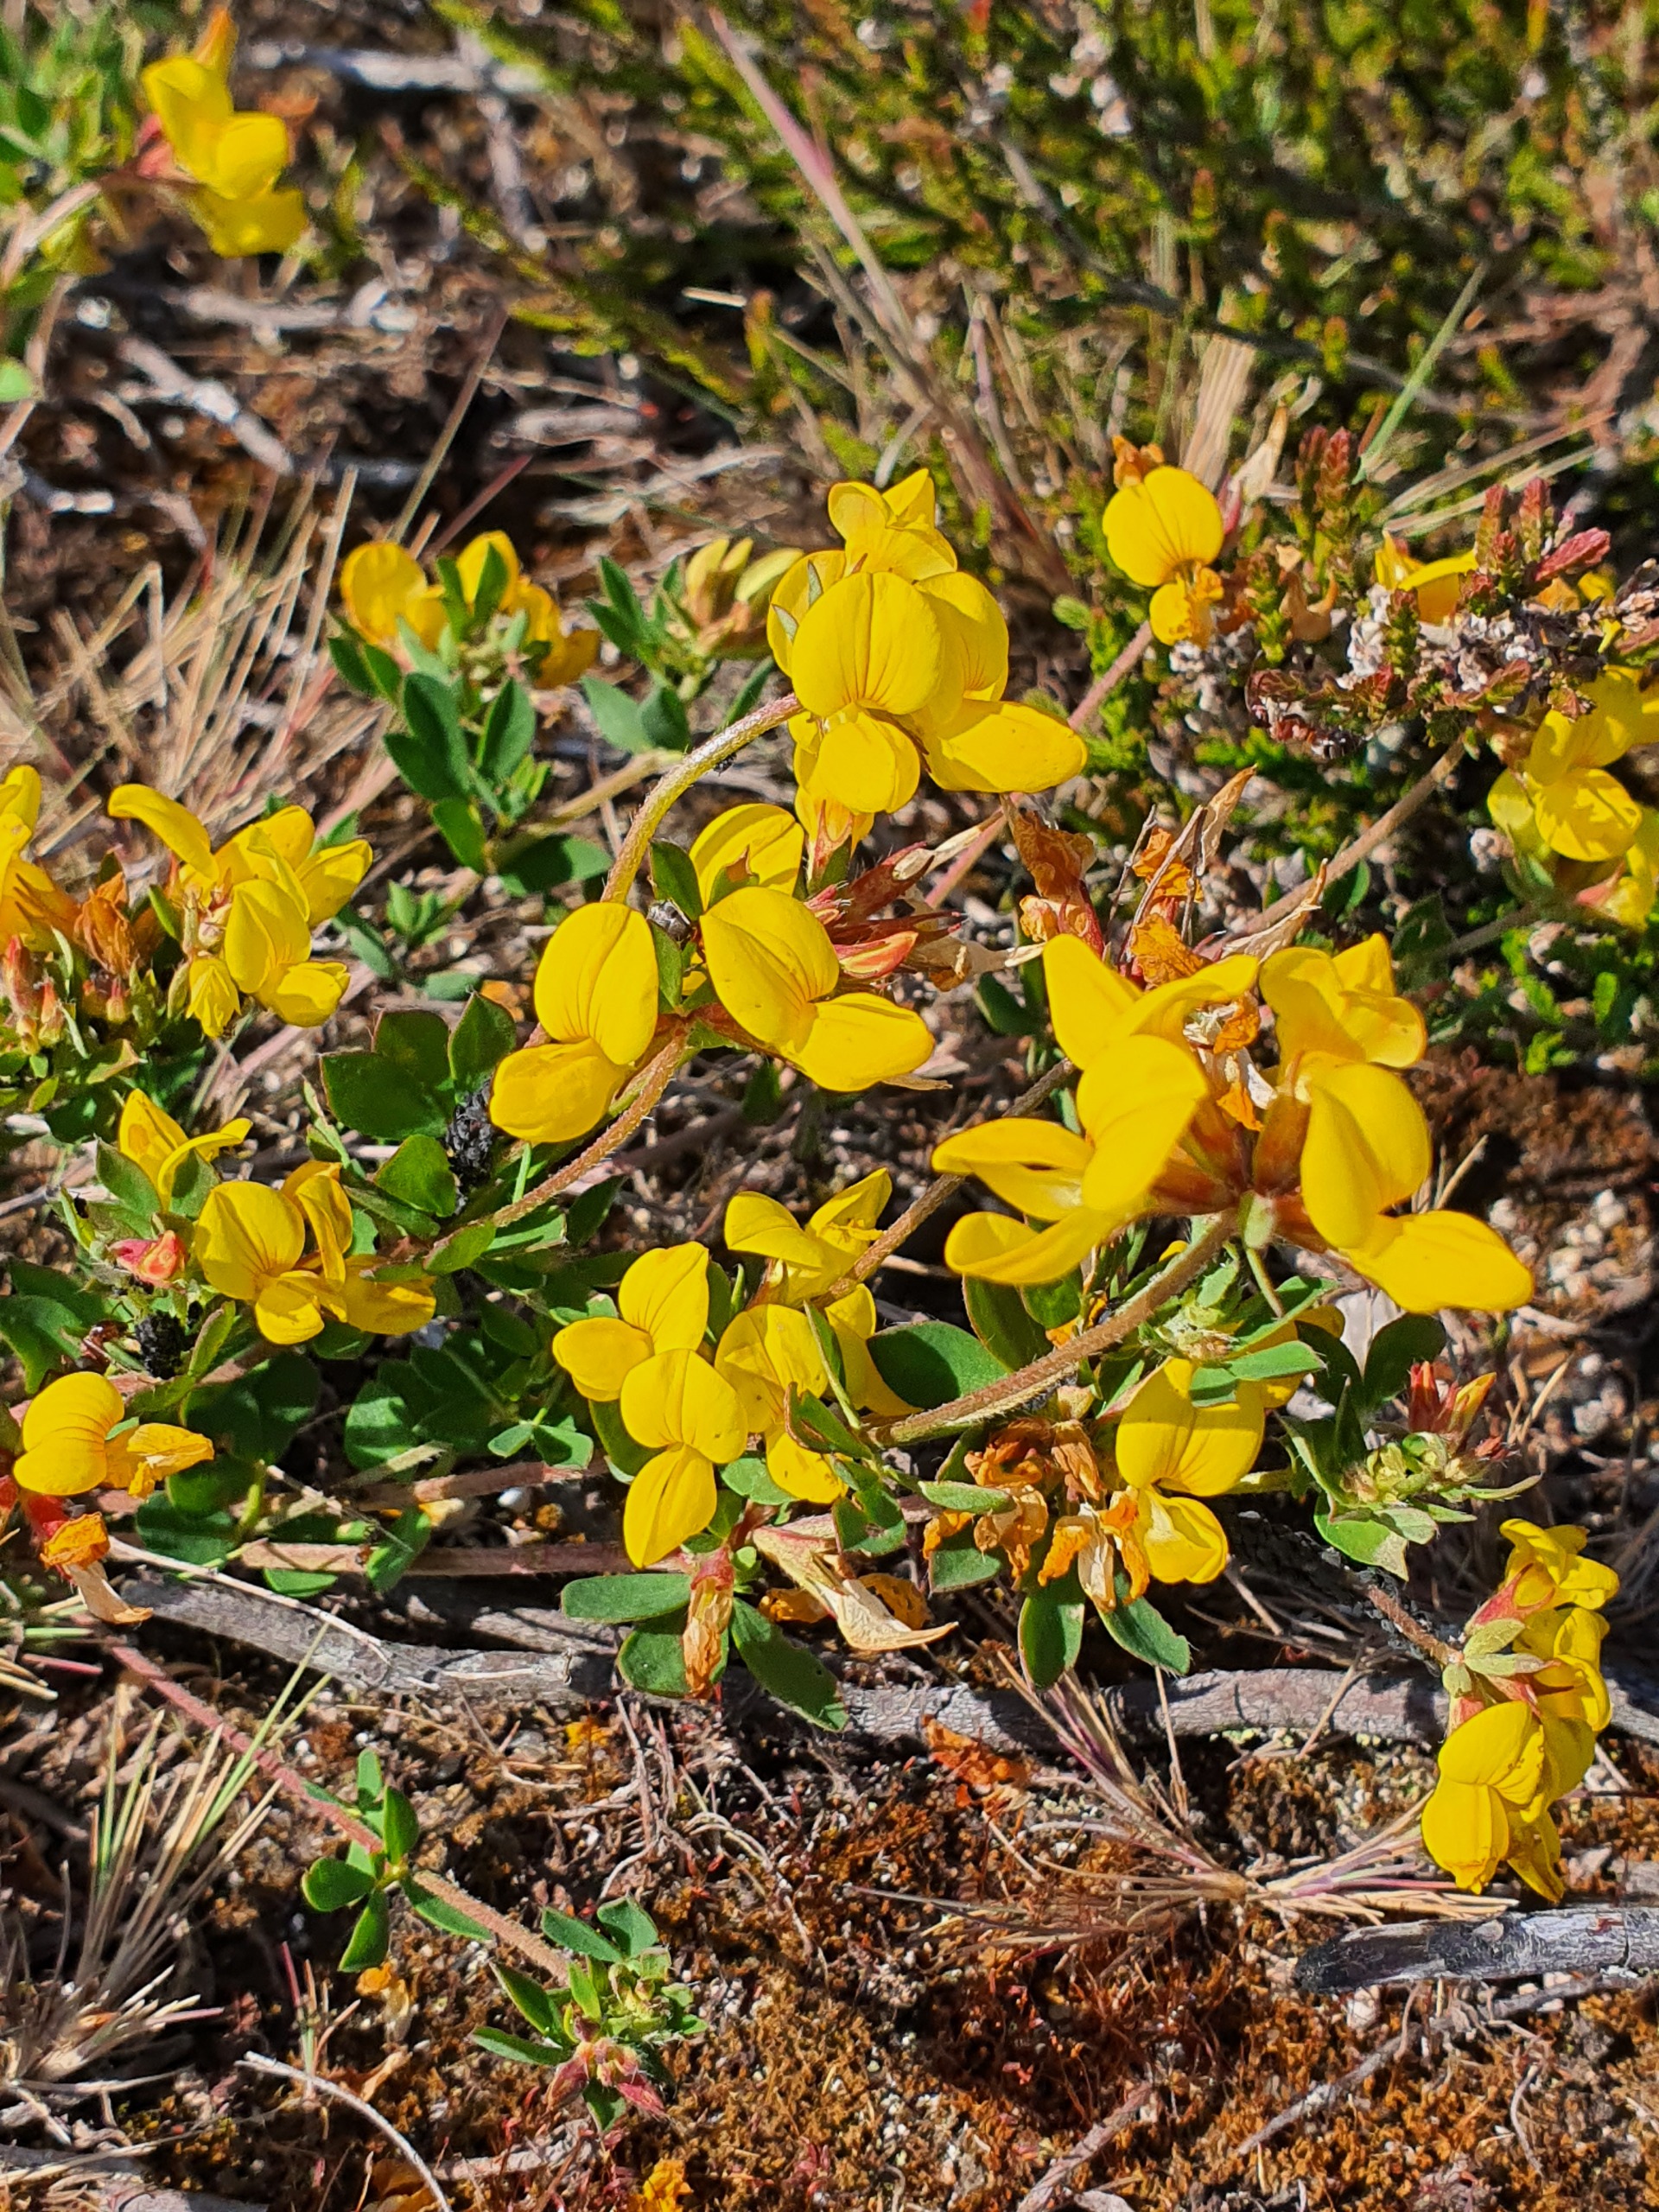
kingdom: Plantae
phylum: Tracheophyta
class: Magnoliopsida
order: Fabales
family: Fabaceae
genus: Lotus
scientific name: Lotus corniculatus
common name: Almindelig kællingetand
